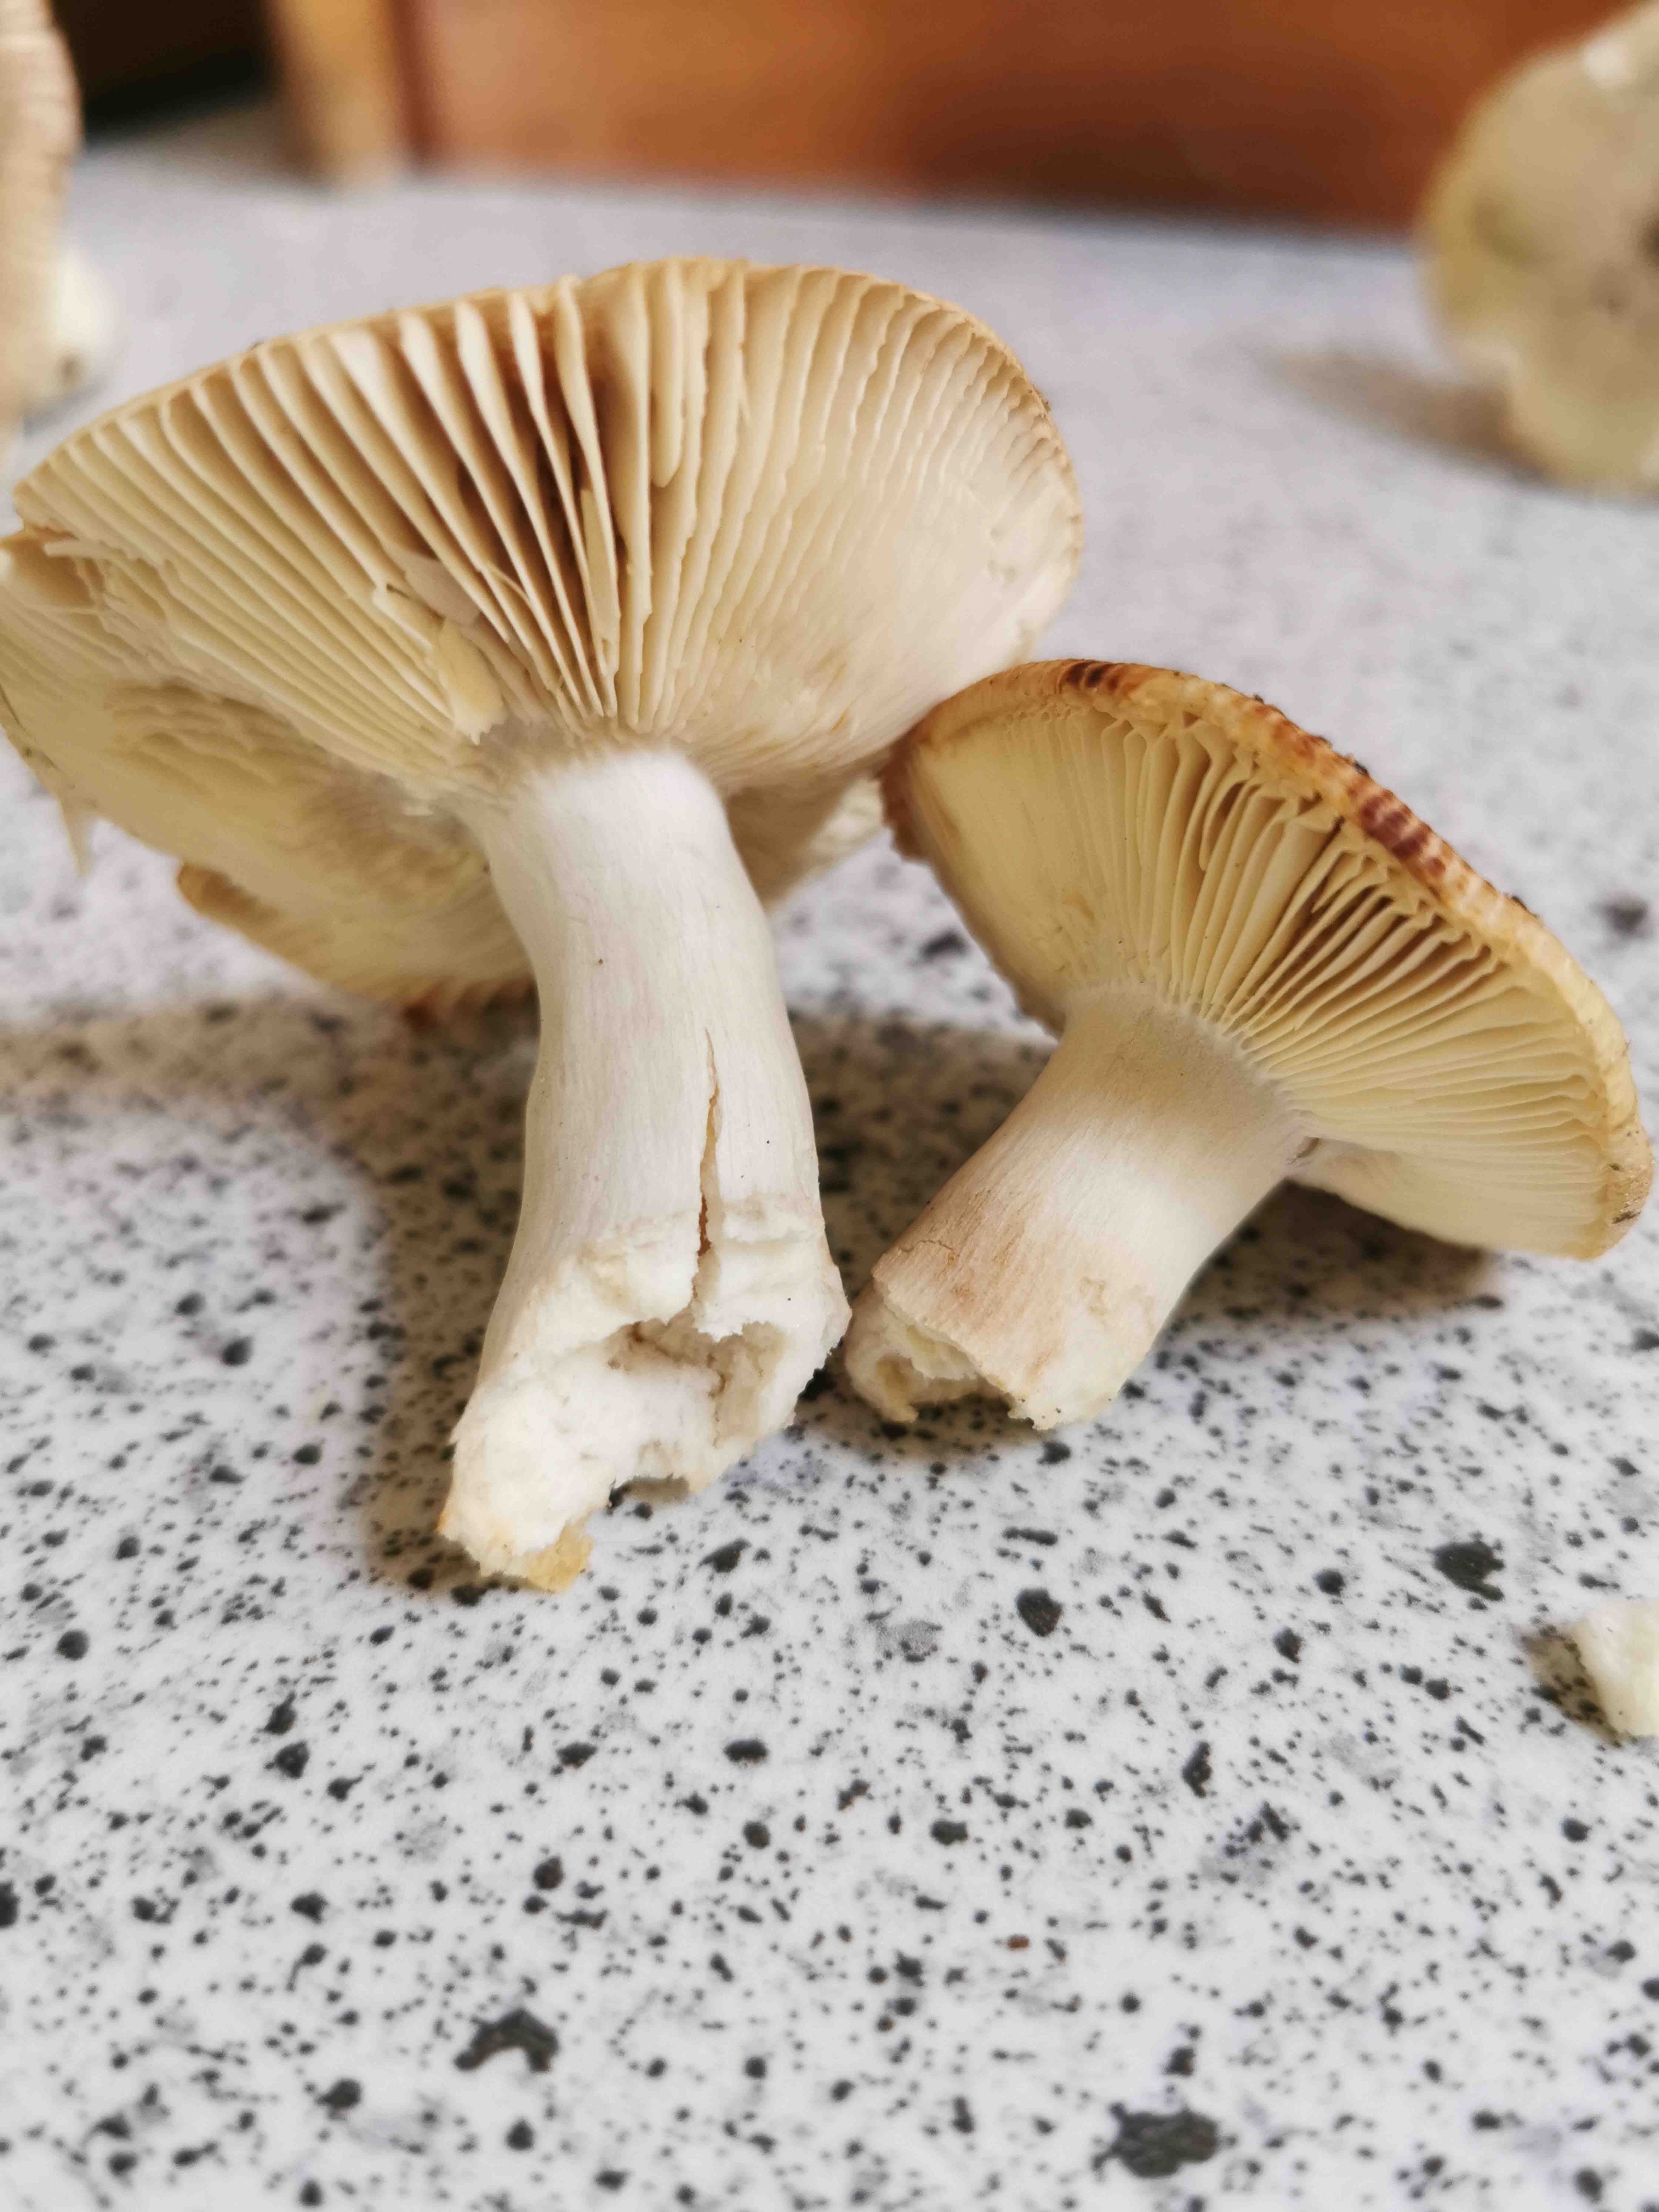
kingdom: Fungi
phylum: Basidiomycota
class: Agaricomycetes
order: Russulales
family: Russulaceae
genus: Russula
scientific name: Russula
